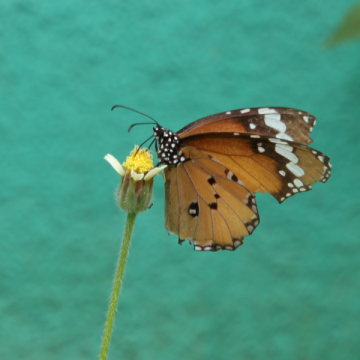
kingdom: Animalia
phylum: Arthropoda
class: Insecta
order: Lepidoptera
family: Nymphalidae
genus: Danaus
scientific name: Danaus chrysippus
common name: African Monarch
